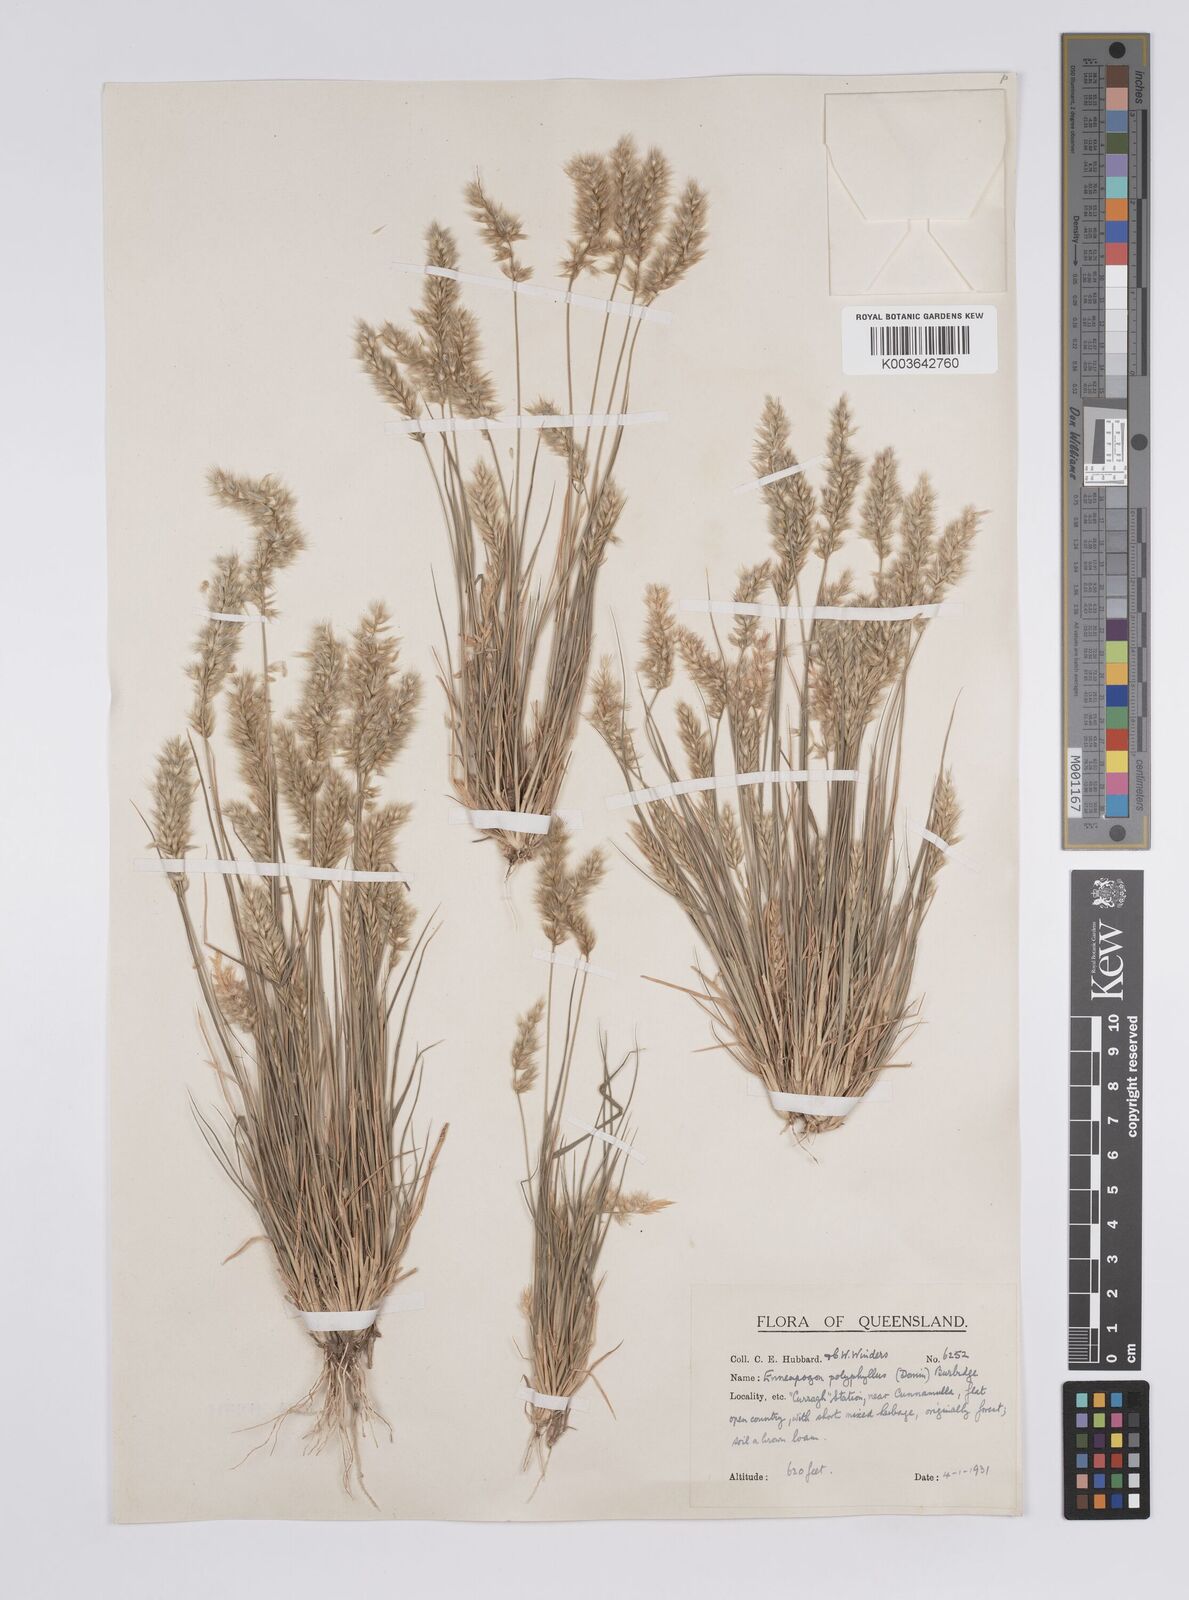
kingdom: Plantae
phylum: Tracheophyta
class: Liliopsida
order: Poales
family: Poaceae
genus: Enneapogon
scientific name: Enneapogon polyphyllus
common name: Leafy nineawn
